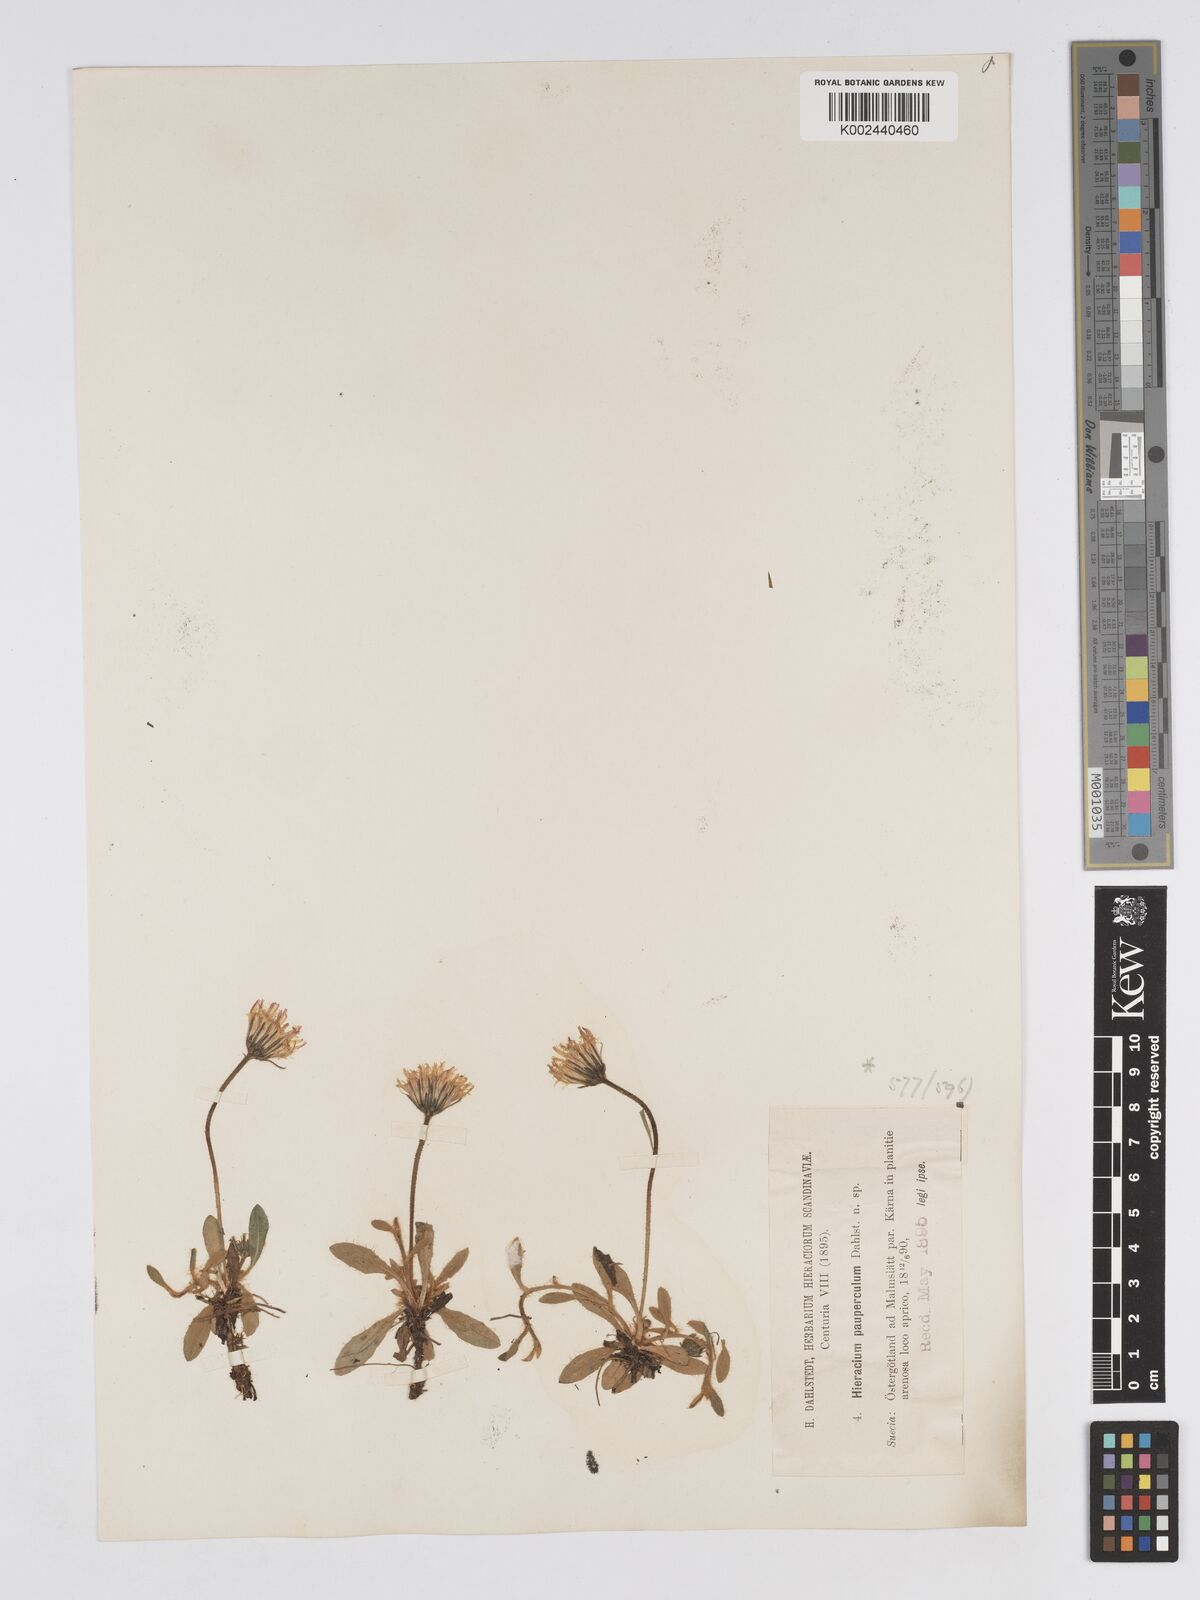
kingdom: Plantae
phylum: Tracheophyta
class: Magnoliopsida
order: Asterales
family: Asteraceae
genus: Pilosella
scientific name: Pilosella officinarum
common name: Mouse-ear hawkweed
